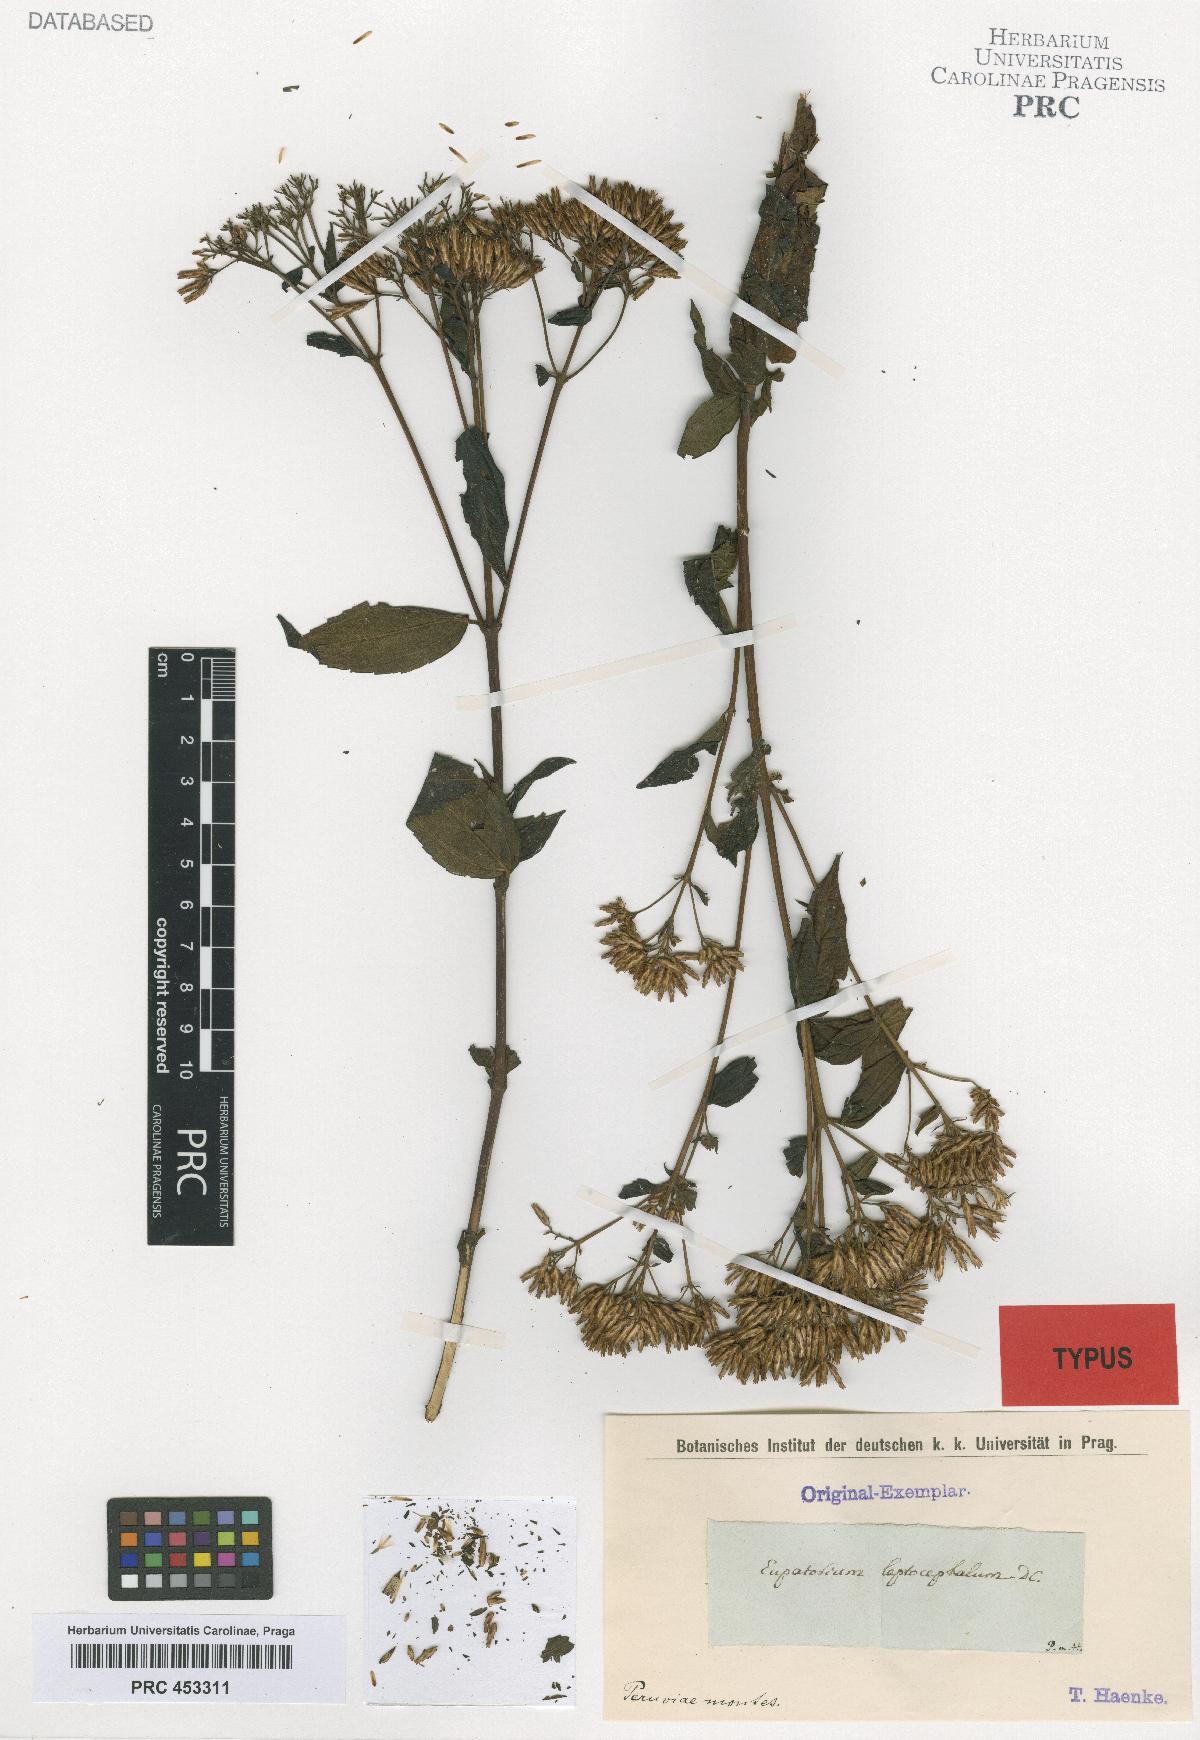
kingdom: Plantae
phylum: Tracheophyta
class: Magnoliopsida
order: Asterales
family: Asteraceae
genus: Chromolaena
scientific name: Chromolaena leptocephala
